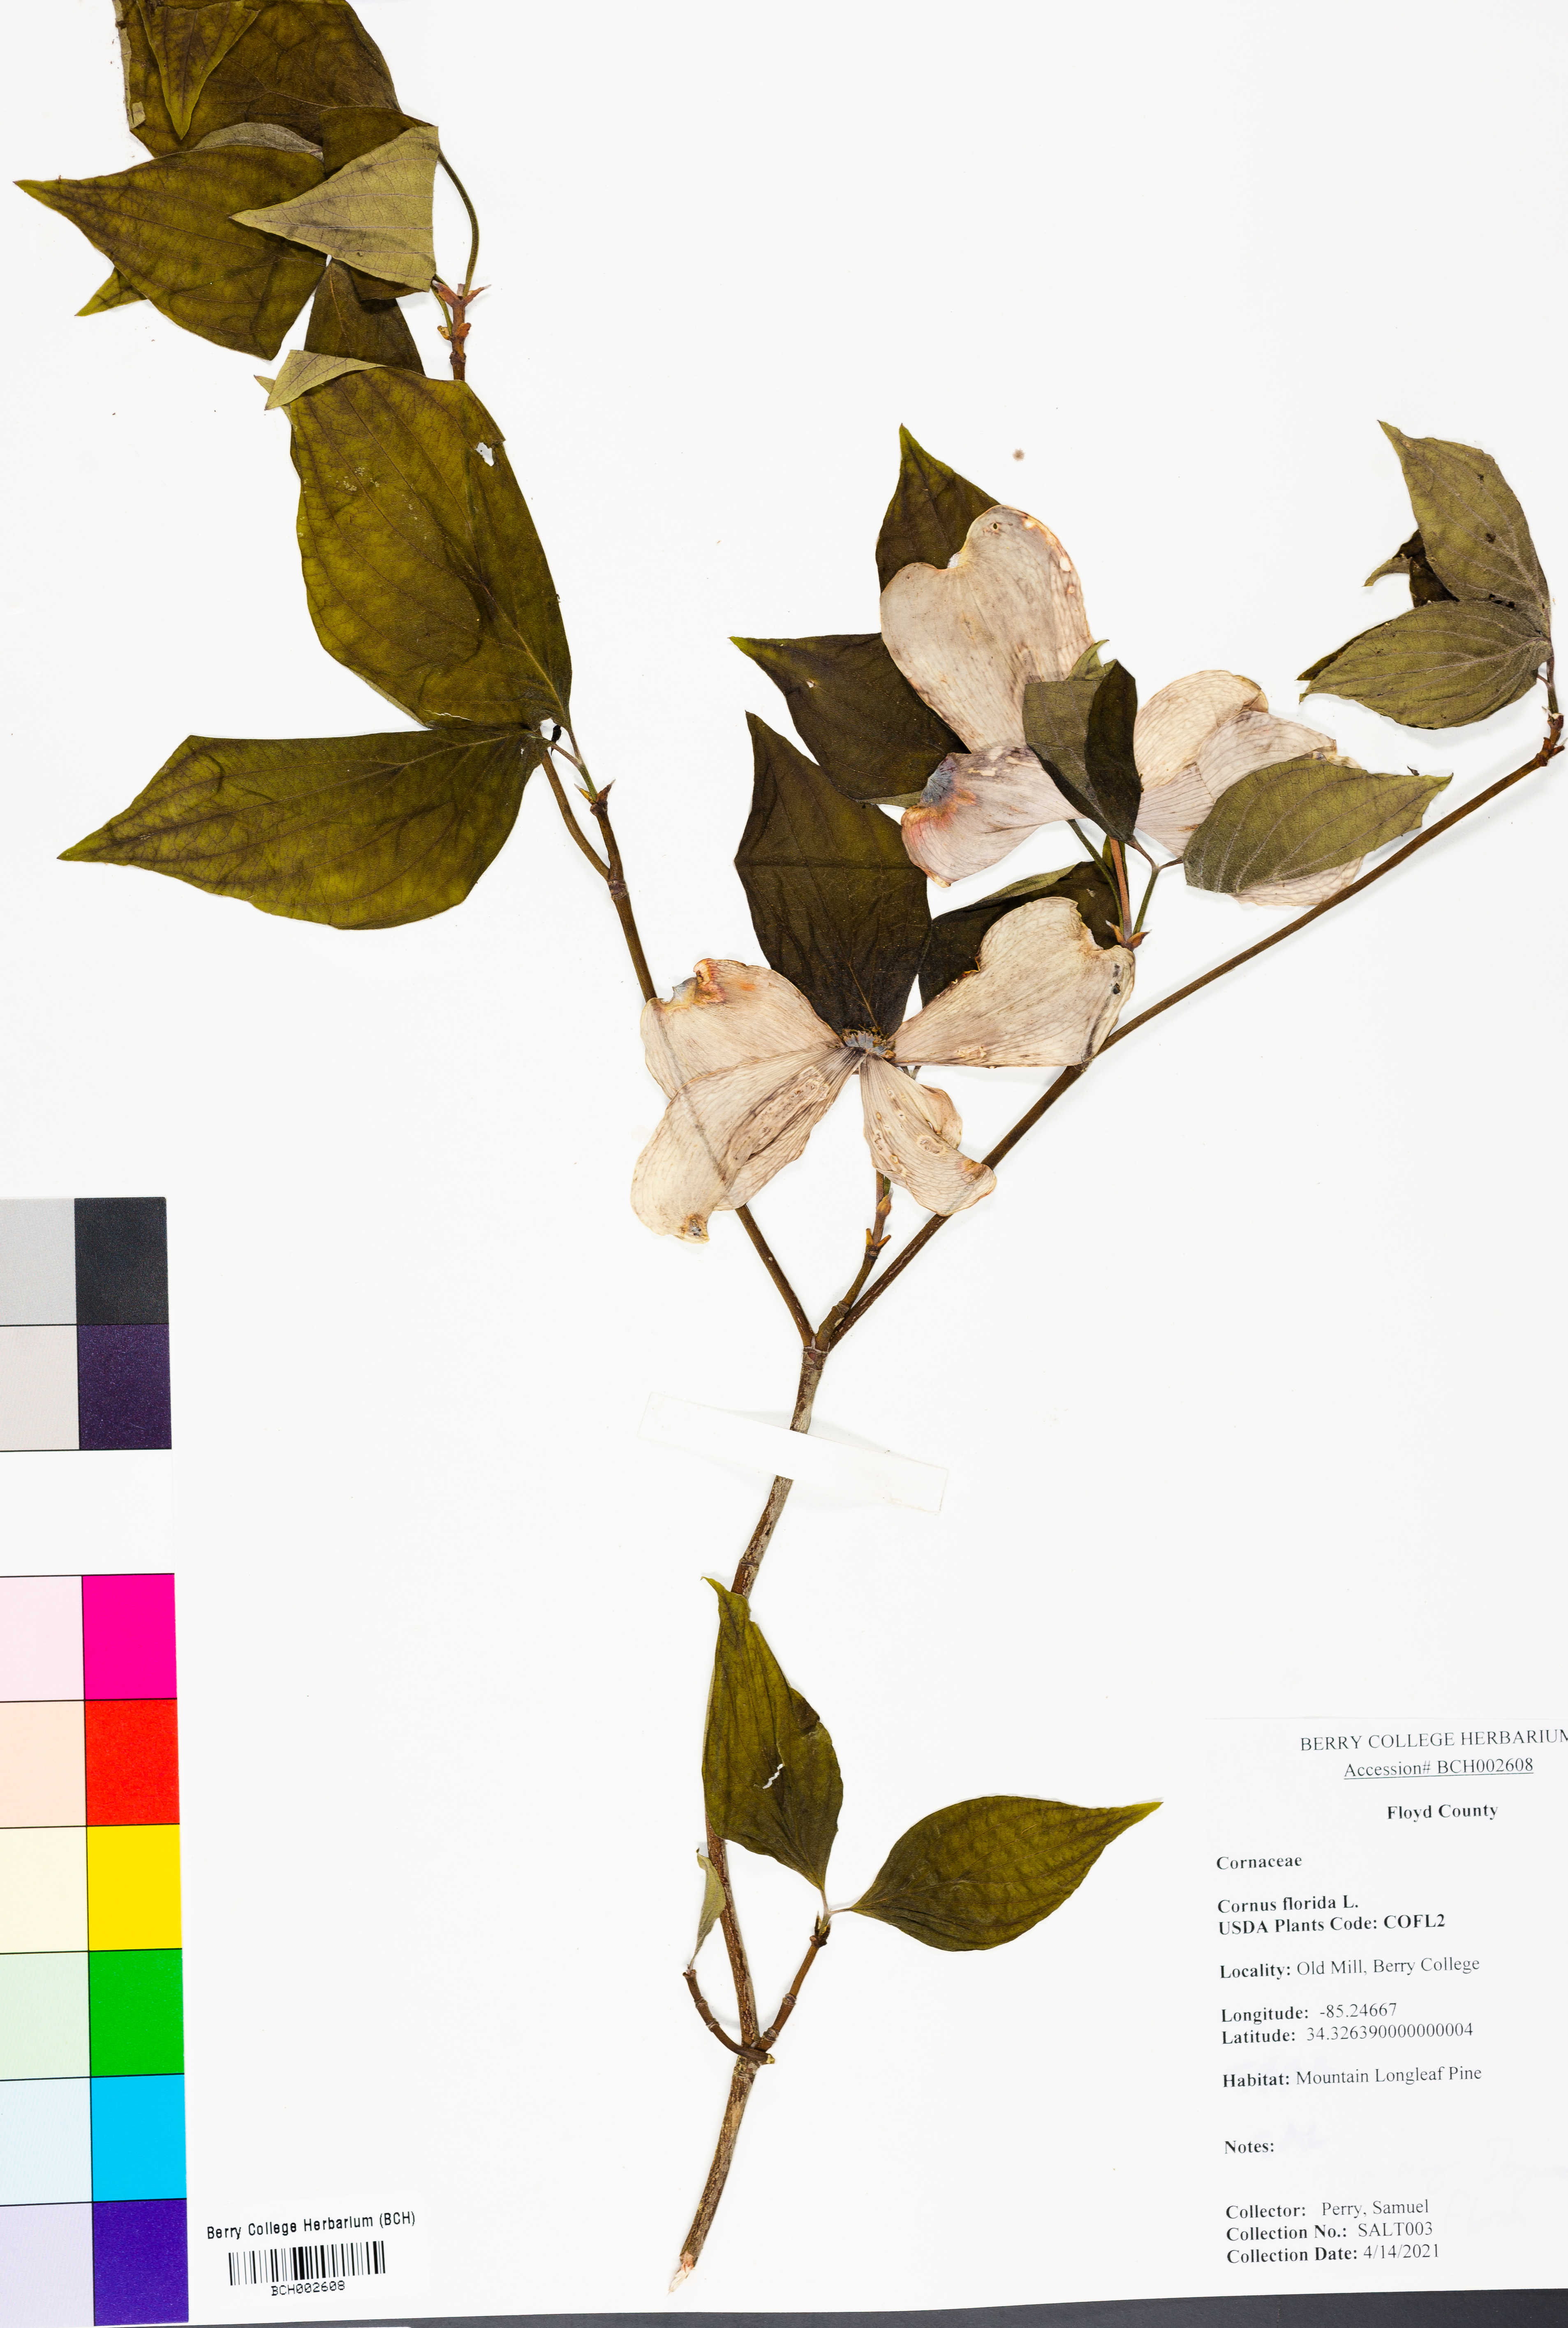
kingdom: Plantae
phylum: Tracheophyta
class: Magnoliopsida
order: Cornales
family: Cornaceae
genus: Cornus
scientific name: Cornus florida
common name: Flowering dogwood
